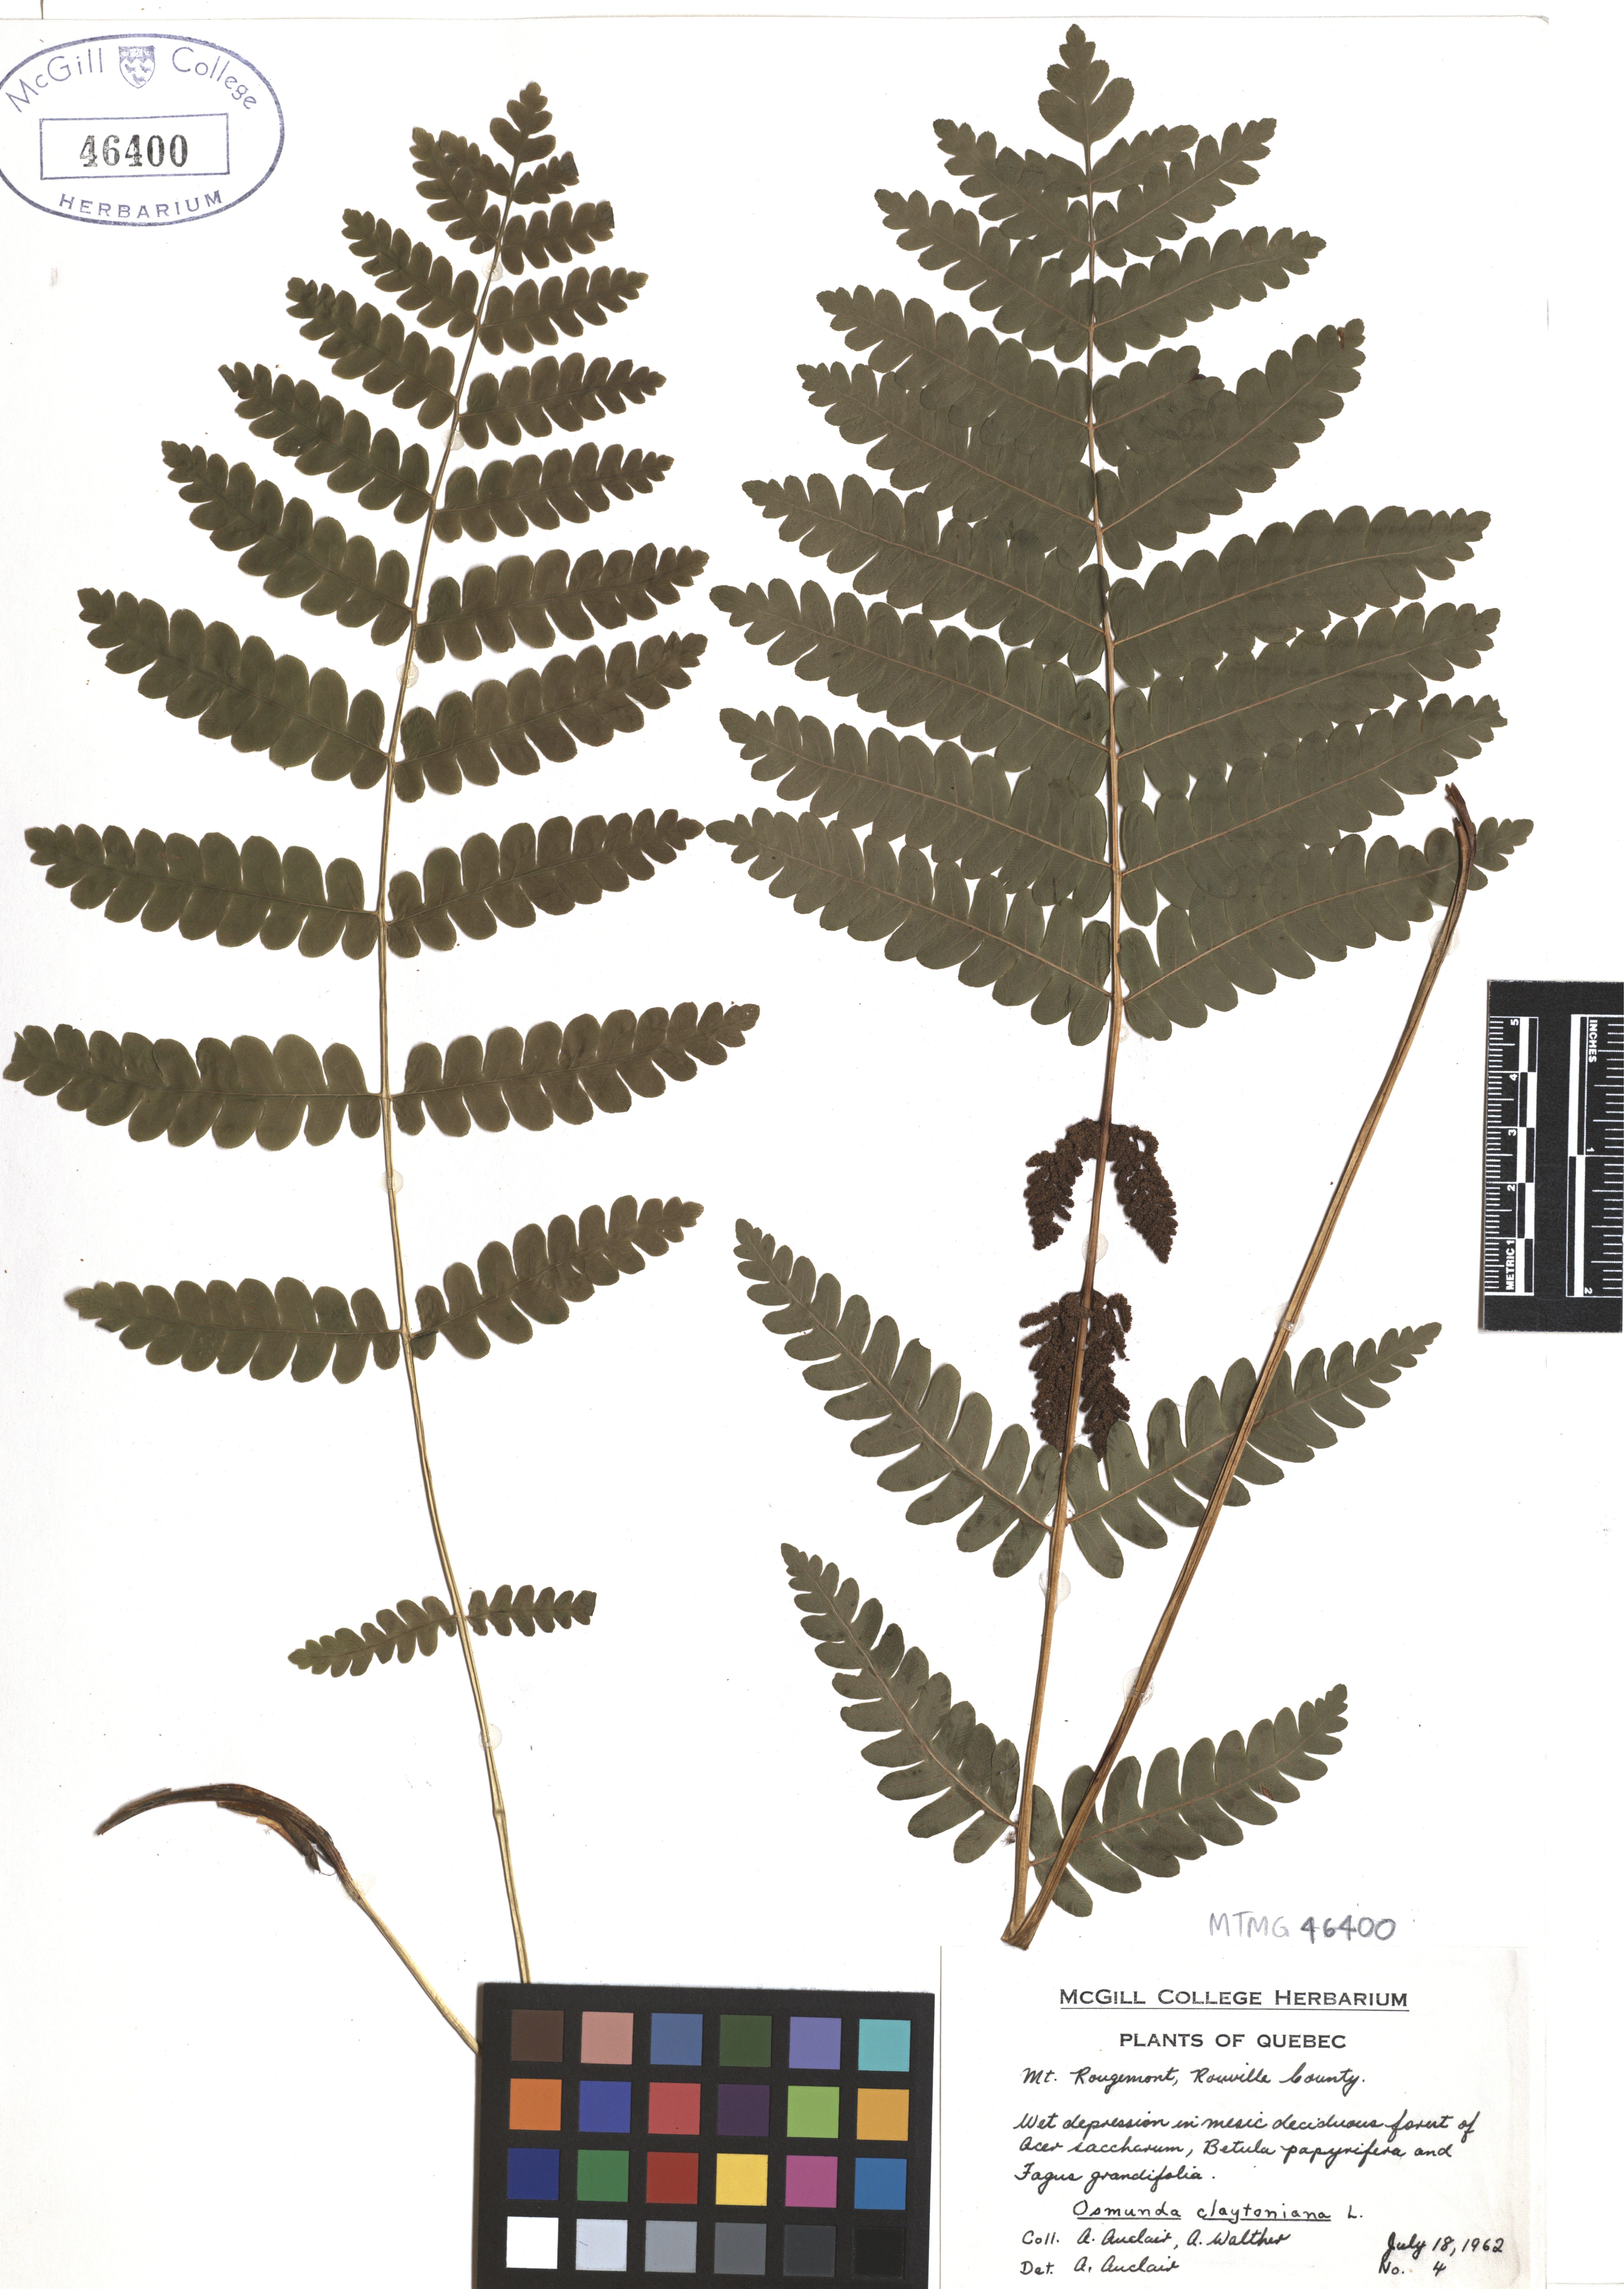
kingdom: Plantae
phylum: Tracheophyta
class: Polypodiopsida
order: Osmundales
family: Osmundaceae
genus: Claytosmunda
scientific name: Claytosmunda claytoniana
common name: Clayton's fern
